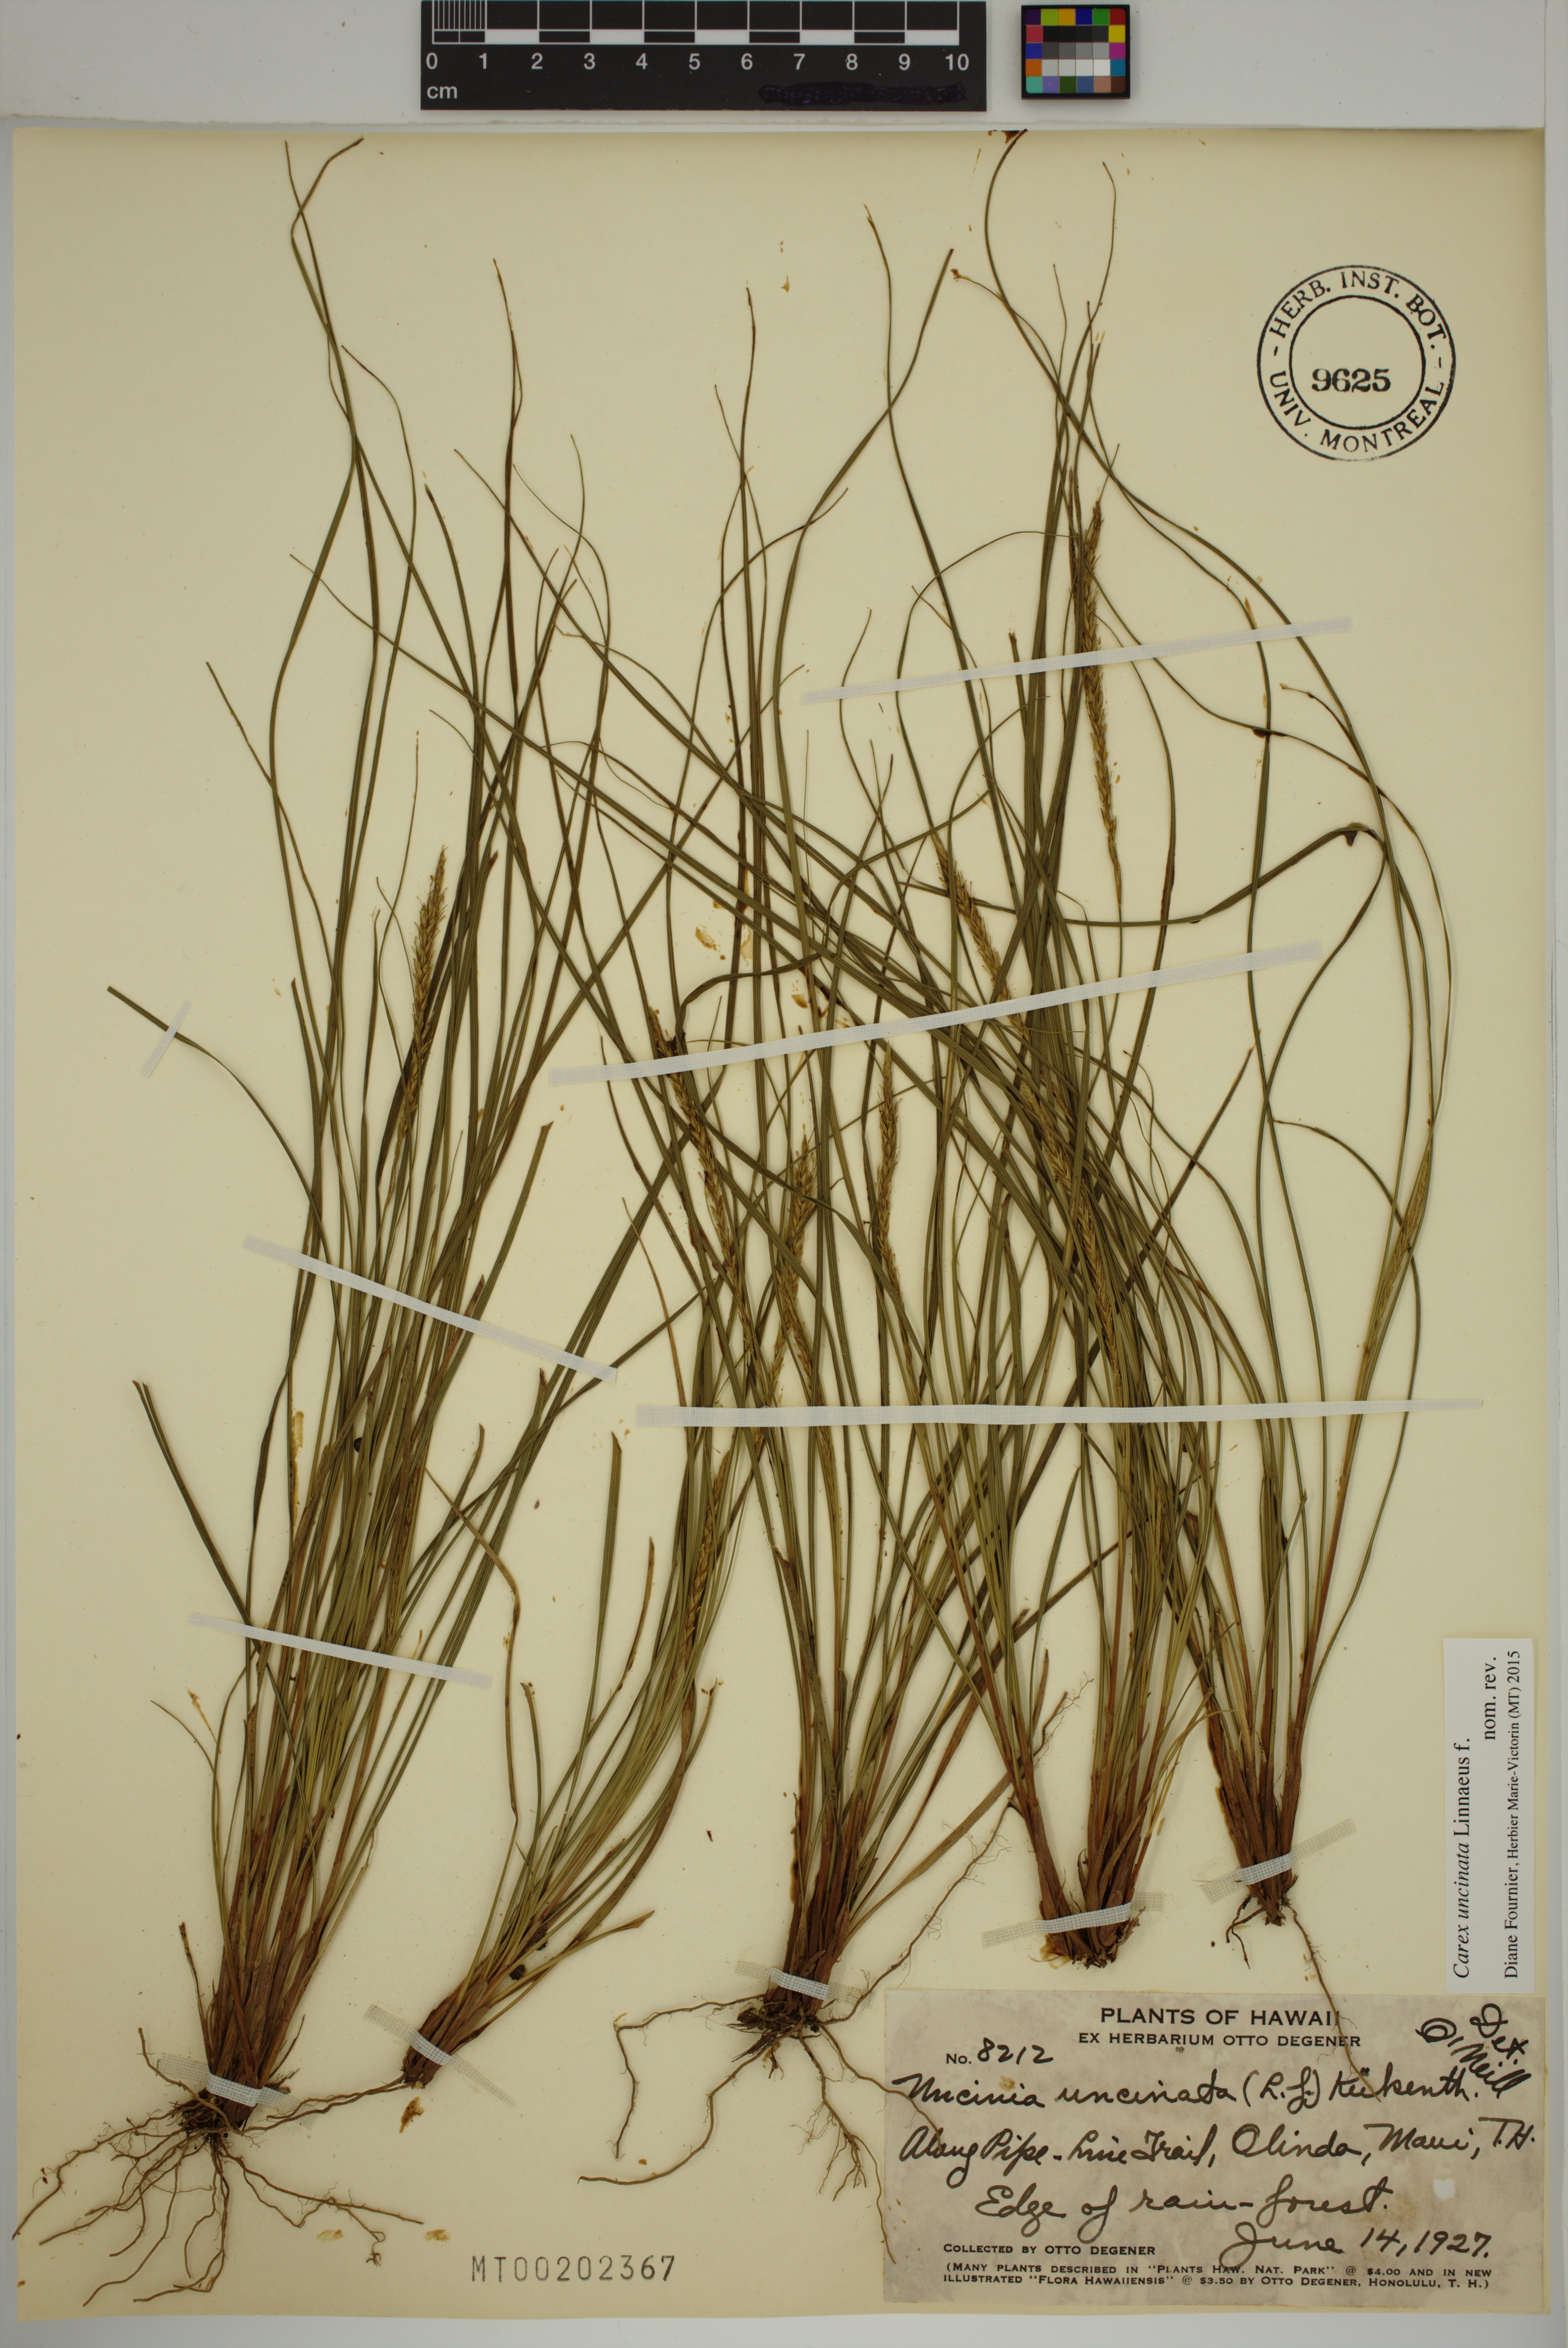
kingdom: Plantae
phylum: Tracheophyta
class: Liliopsida
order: Poales
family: Cyperaceae
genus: Carex
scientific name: Carex uncinata
